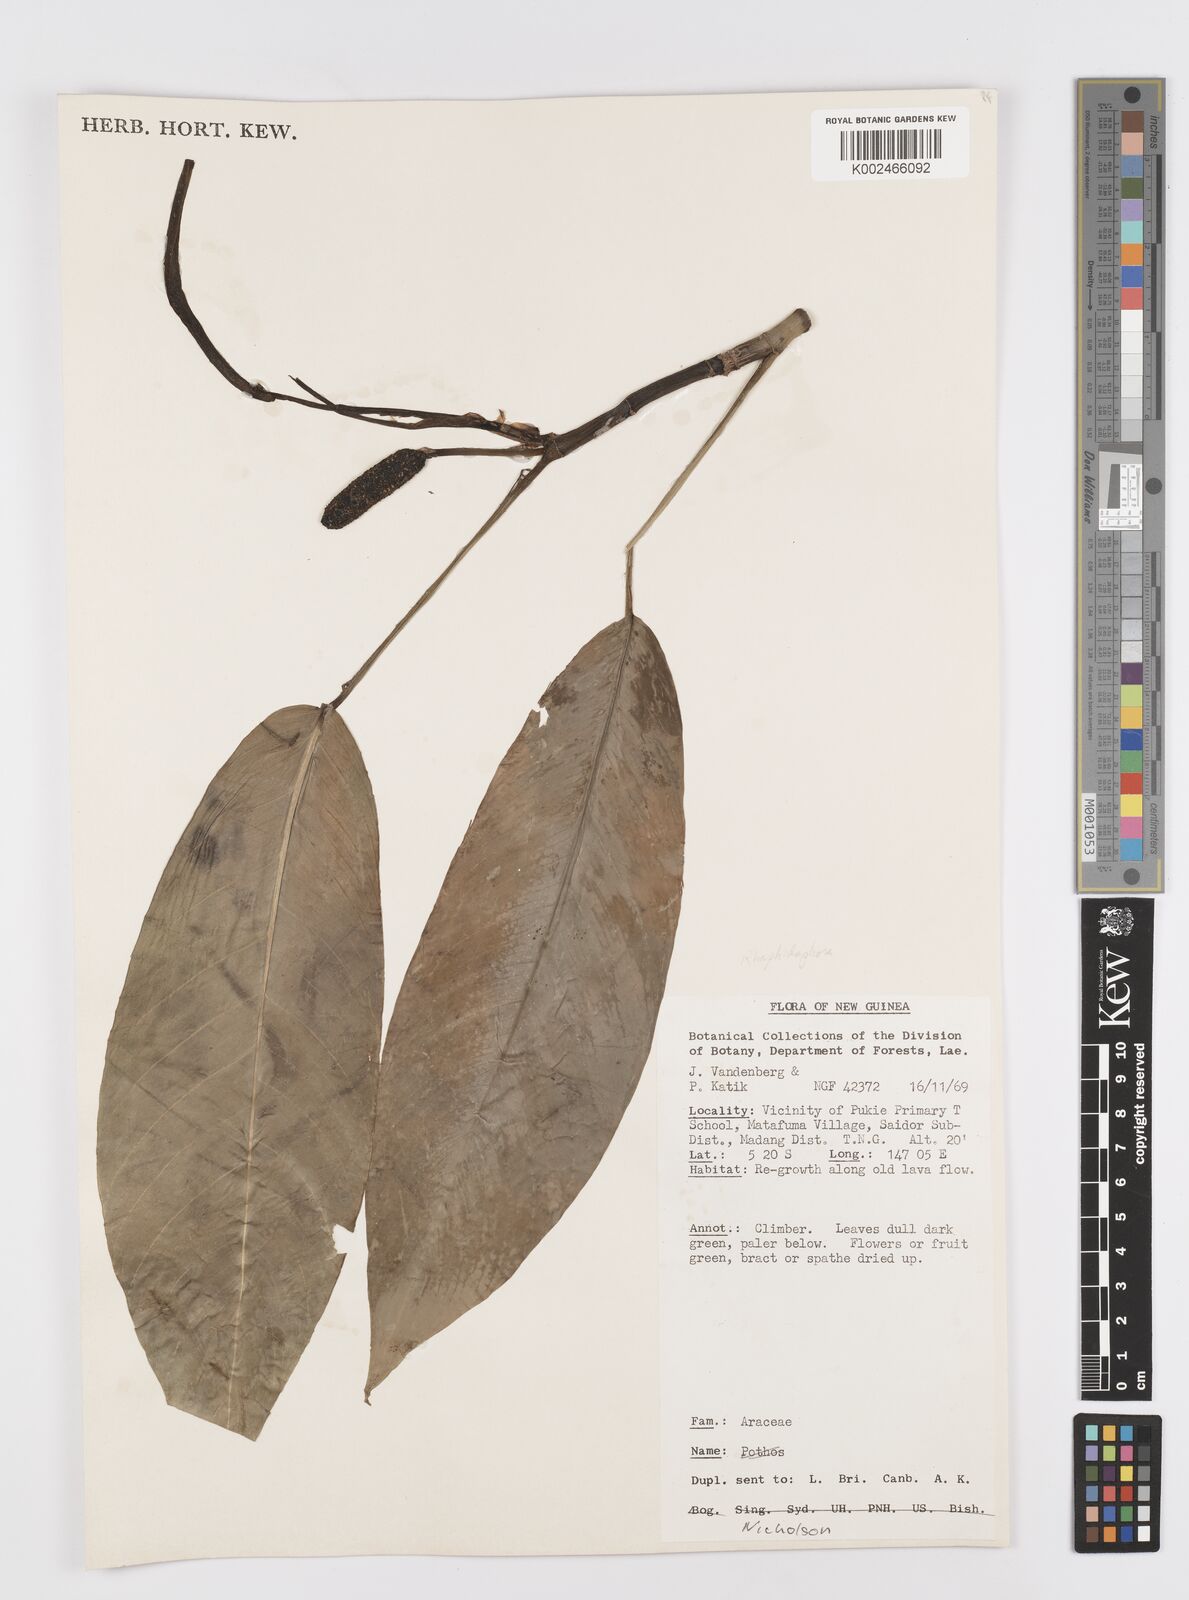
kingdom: Plantae
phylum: Tracheophyta
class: Liliopsida
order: Alismatales
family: Araceae
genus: Rhaphidophora
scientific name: Rhaphidophora schlechteri
